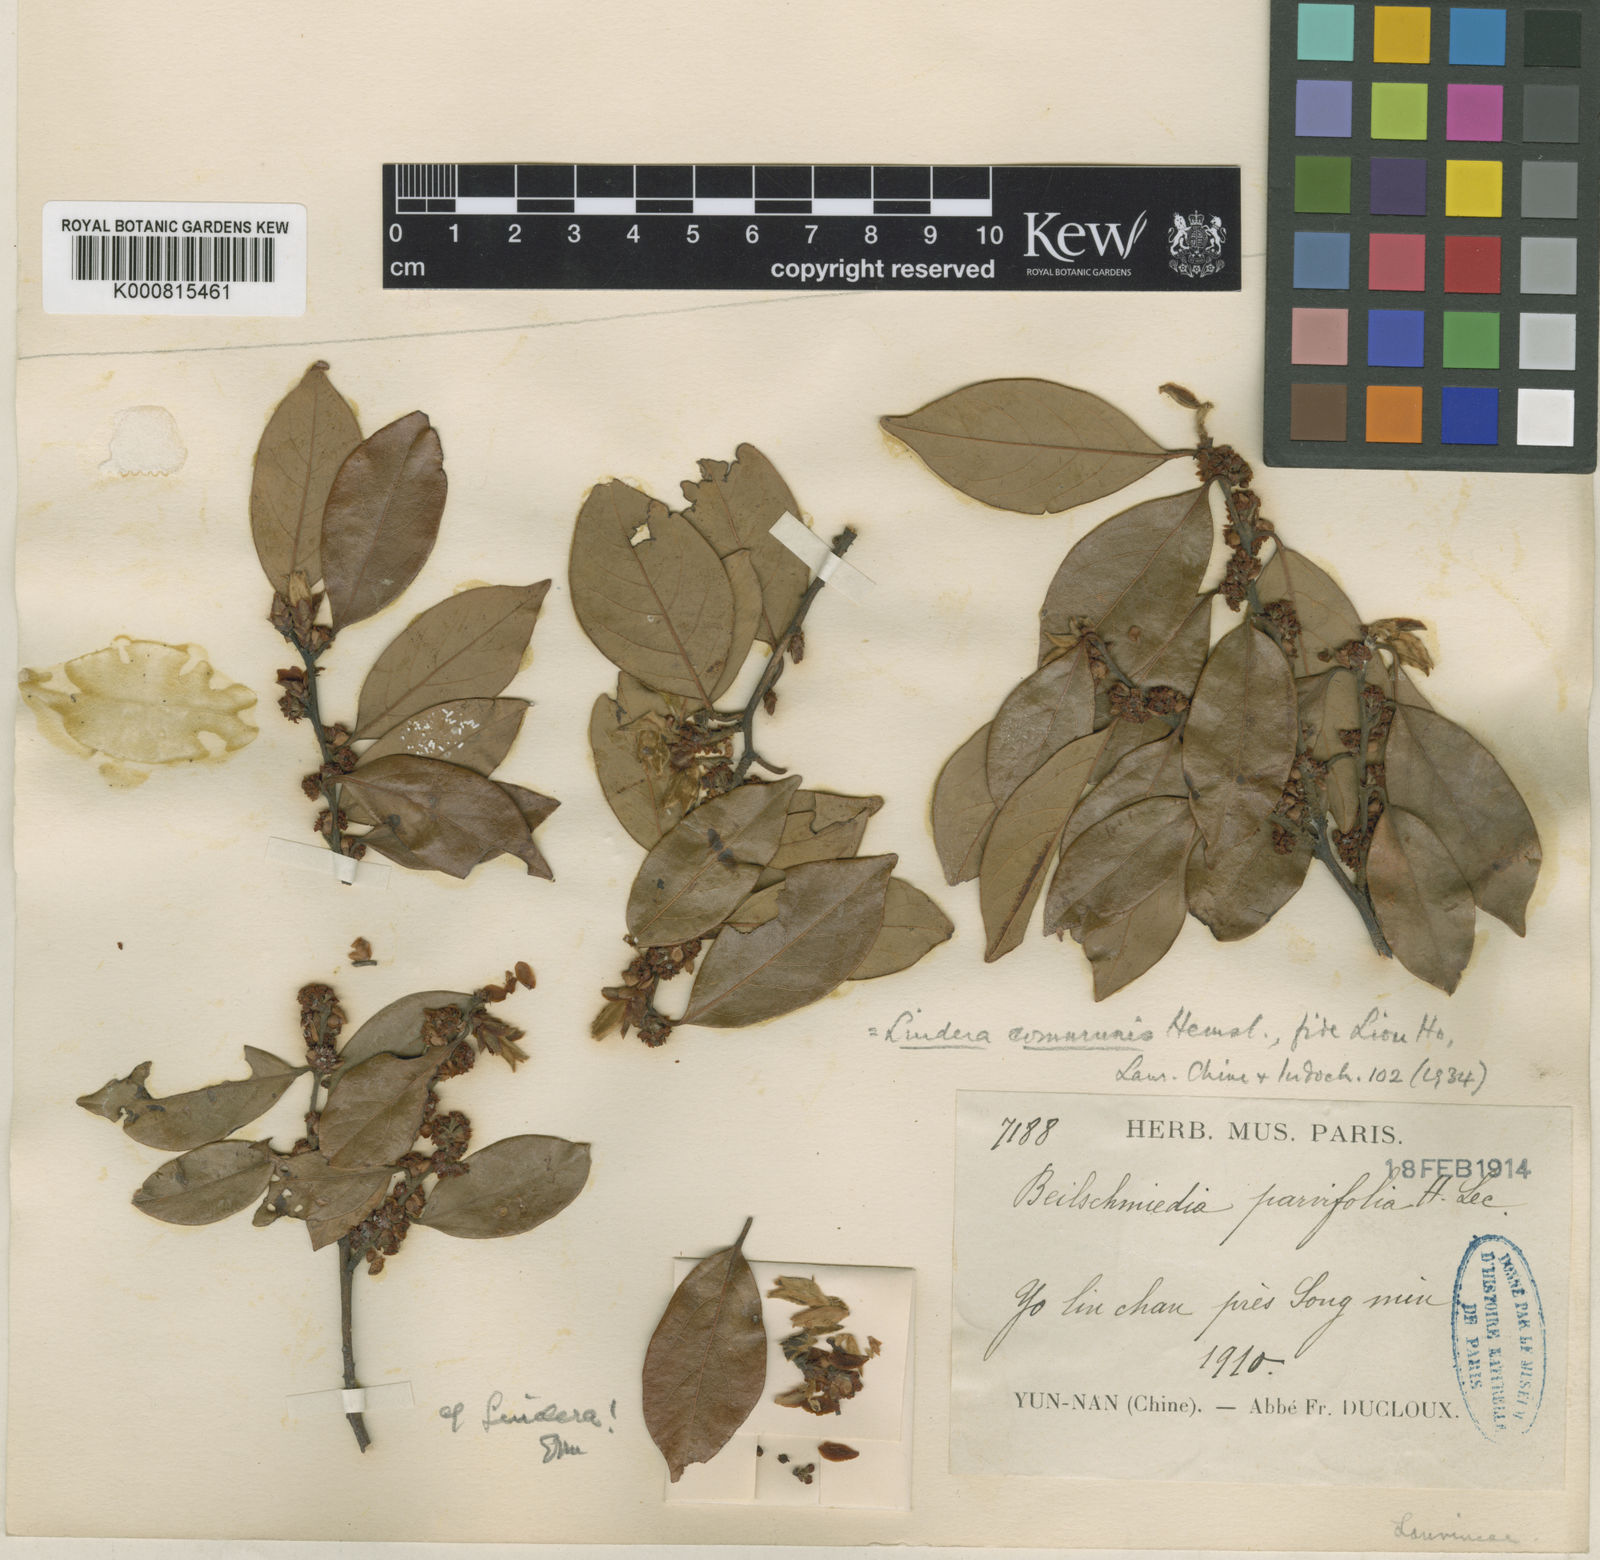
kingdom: Plantae
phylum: Tracheophyta
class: Magnoliopsida
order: Laurales
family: Lauraceae
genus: Lindera
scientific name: Lindera communis
